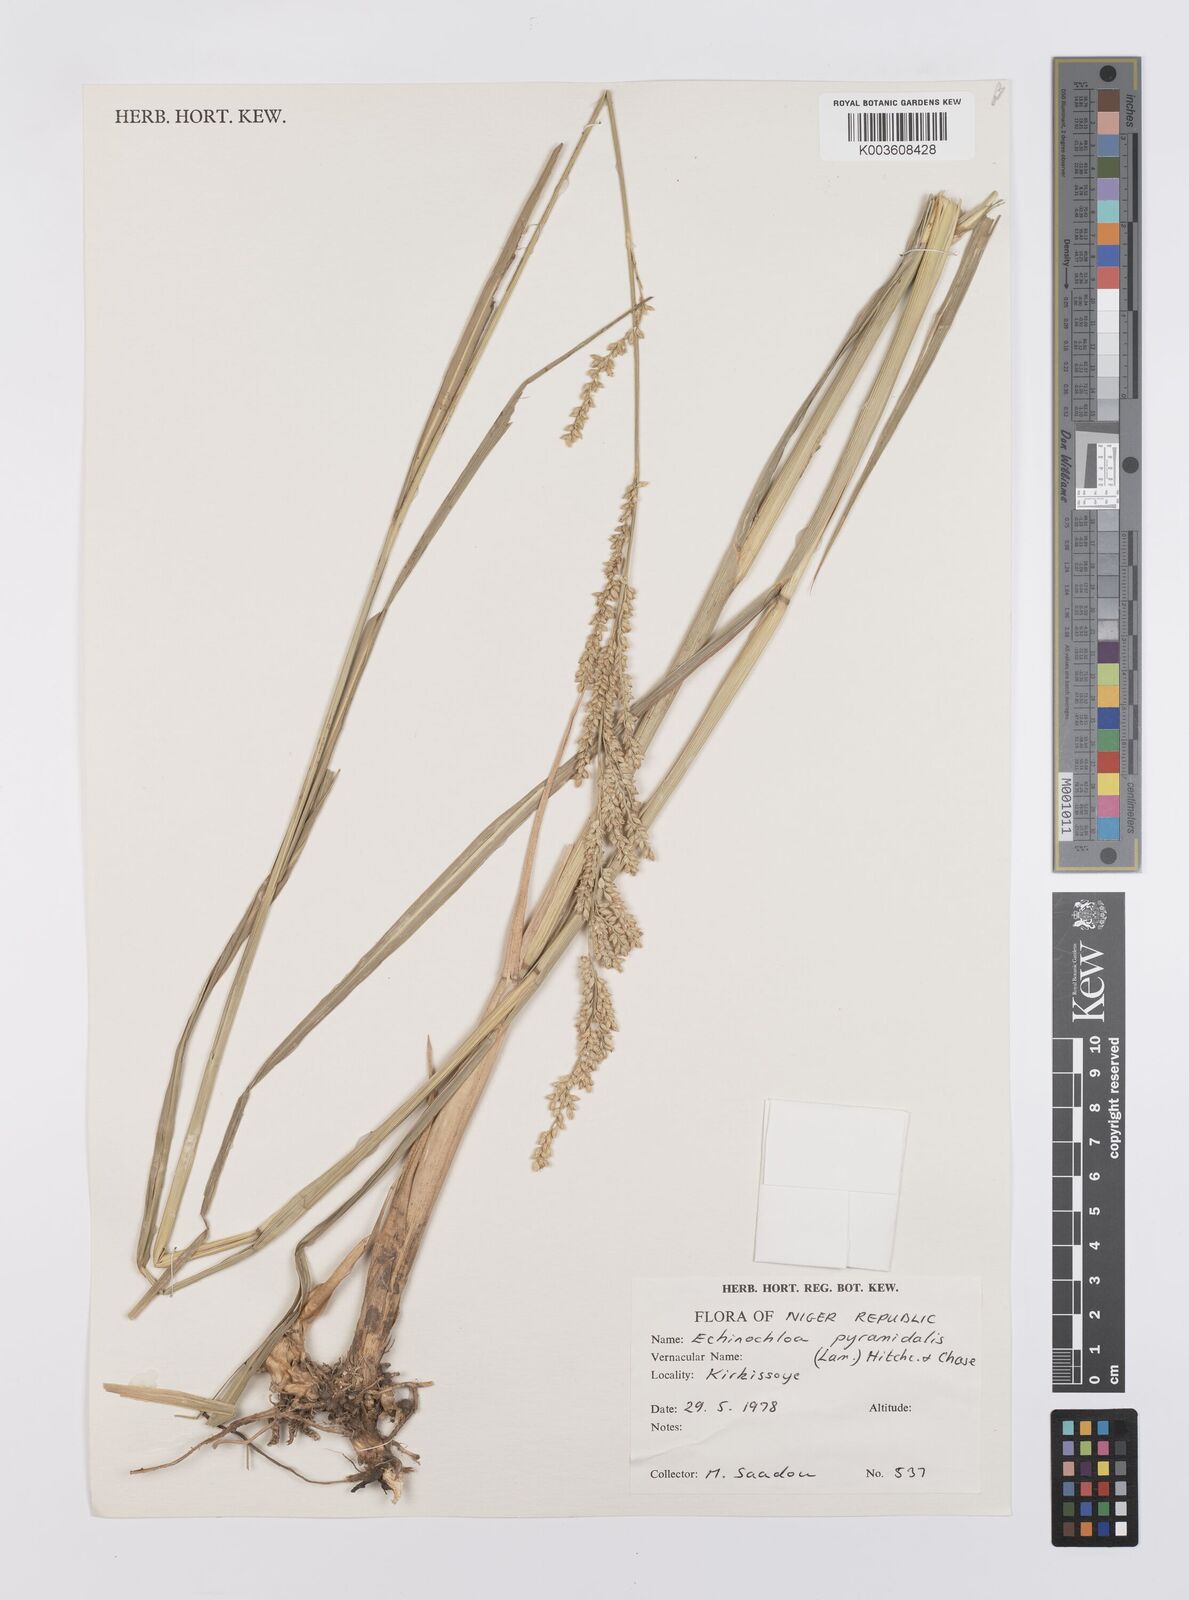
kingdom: Plantae
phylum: Tracheophyta
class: Liliopsida
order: Poales
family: Poaceae
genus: Echinochloa
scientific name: Echinochloa pyramidalis
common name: Antelope grass
